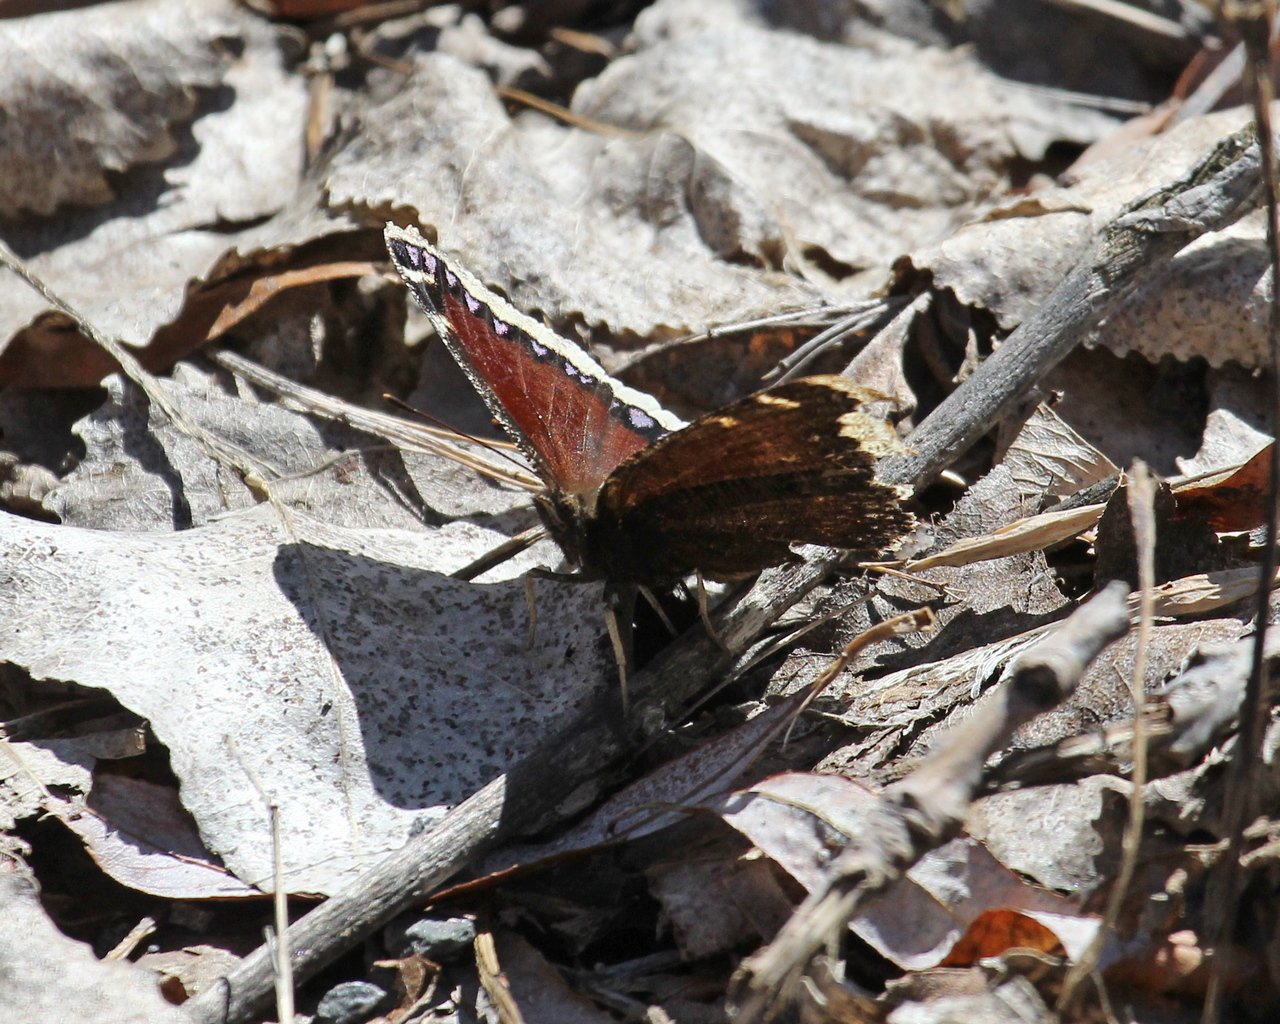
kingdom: Animalia
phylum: Arthropoda
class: Insecta
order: Lepidoptera
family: Nymphalidae
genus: Nymphalis
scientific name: Nymphalis antiopa
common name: Mourning Cloak
